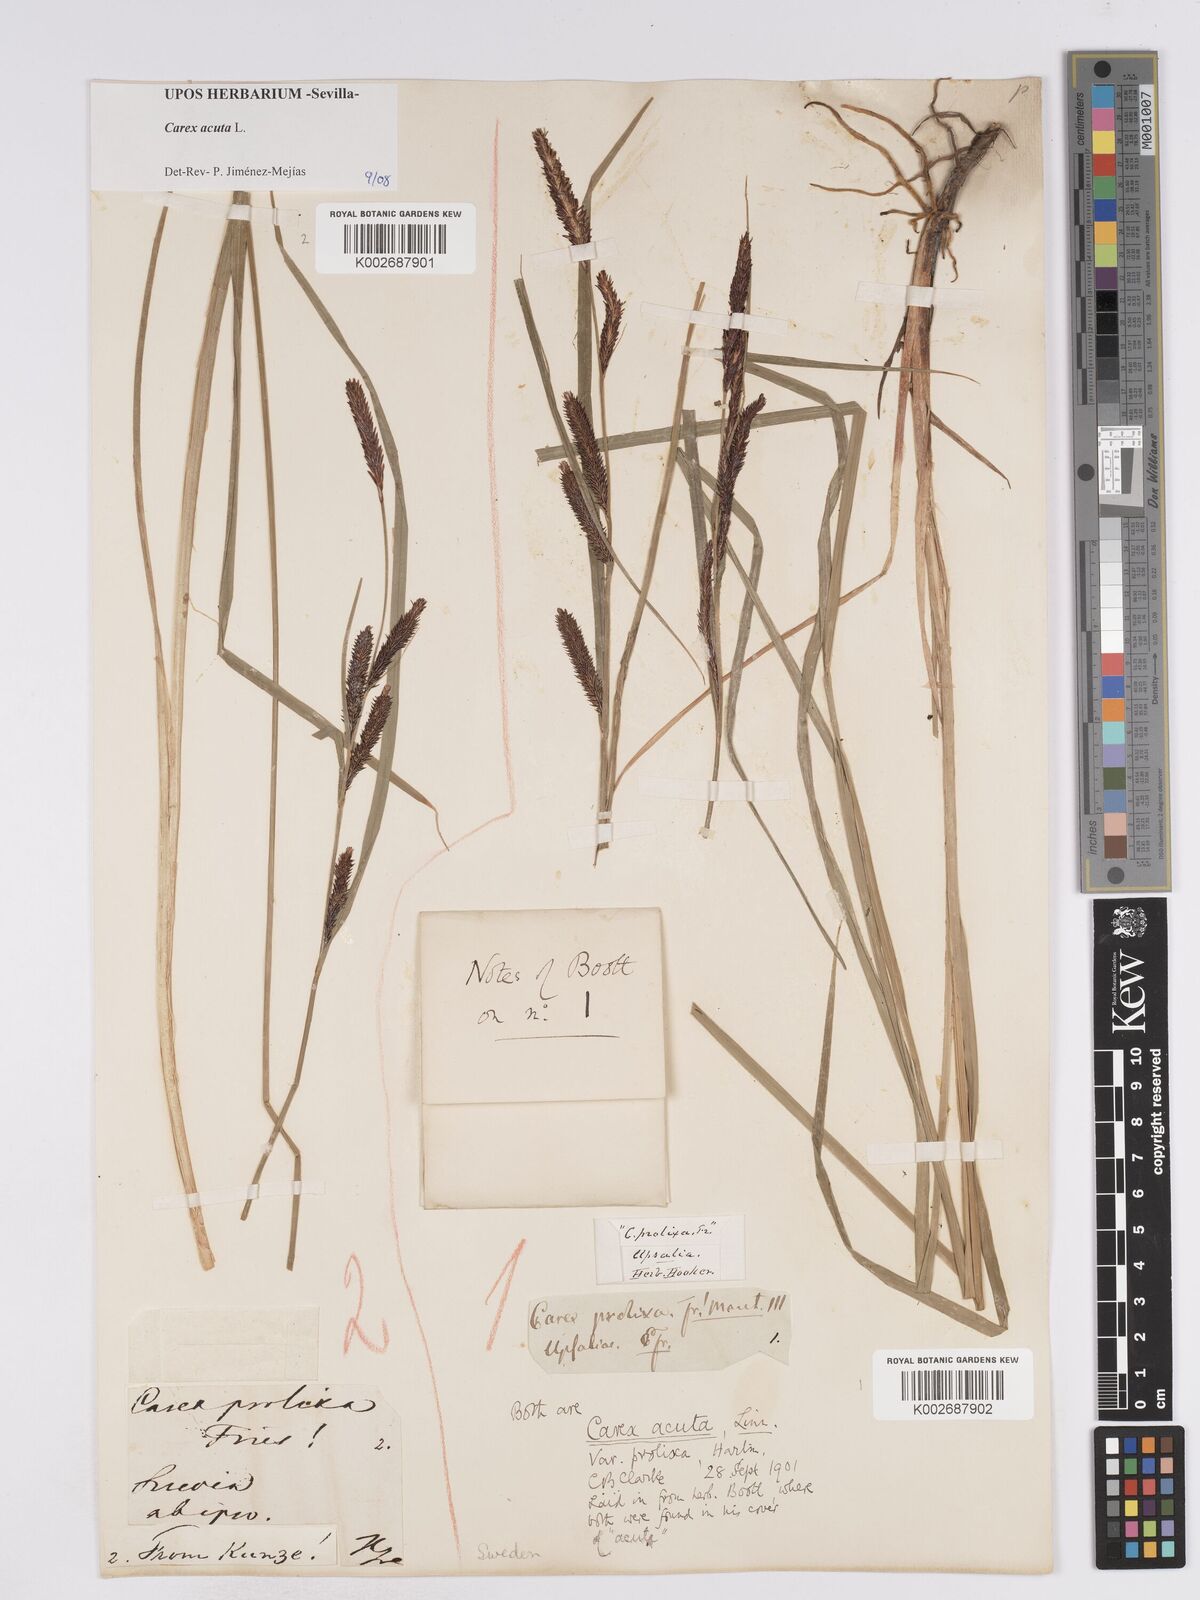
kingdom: Plantae
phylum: Tracheophyta
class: Liliopsida
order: Poales
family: Cyperaceae
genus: Carex
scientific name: Carex acuta
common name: Slender tufted-sedge
